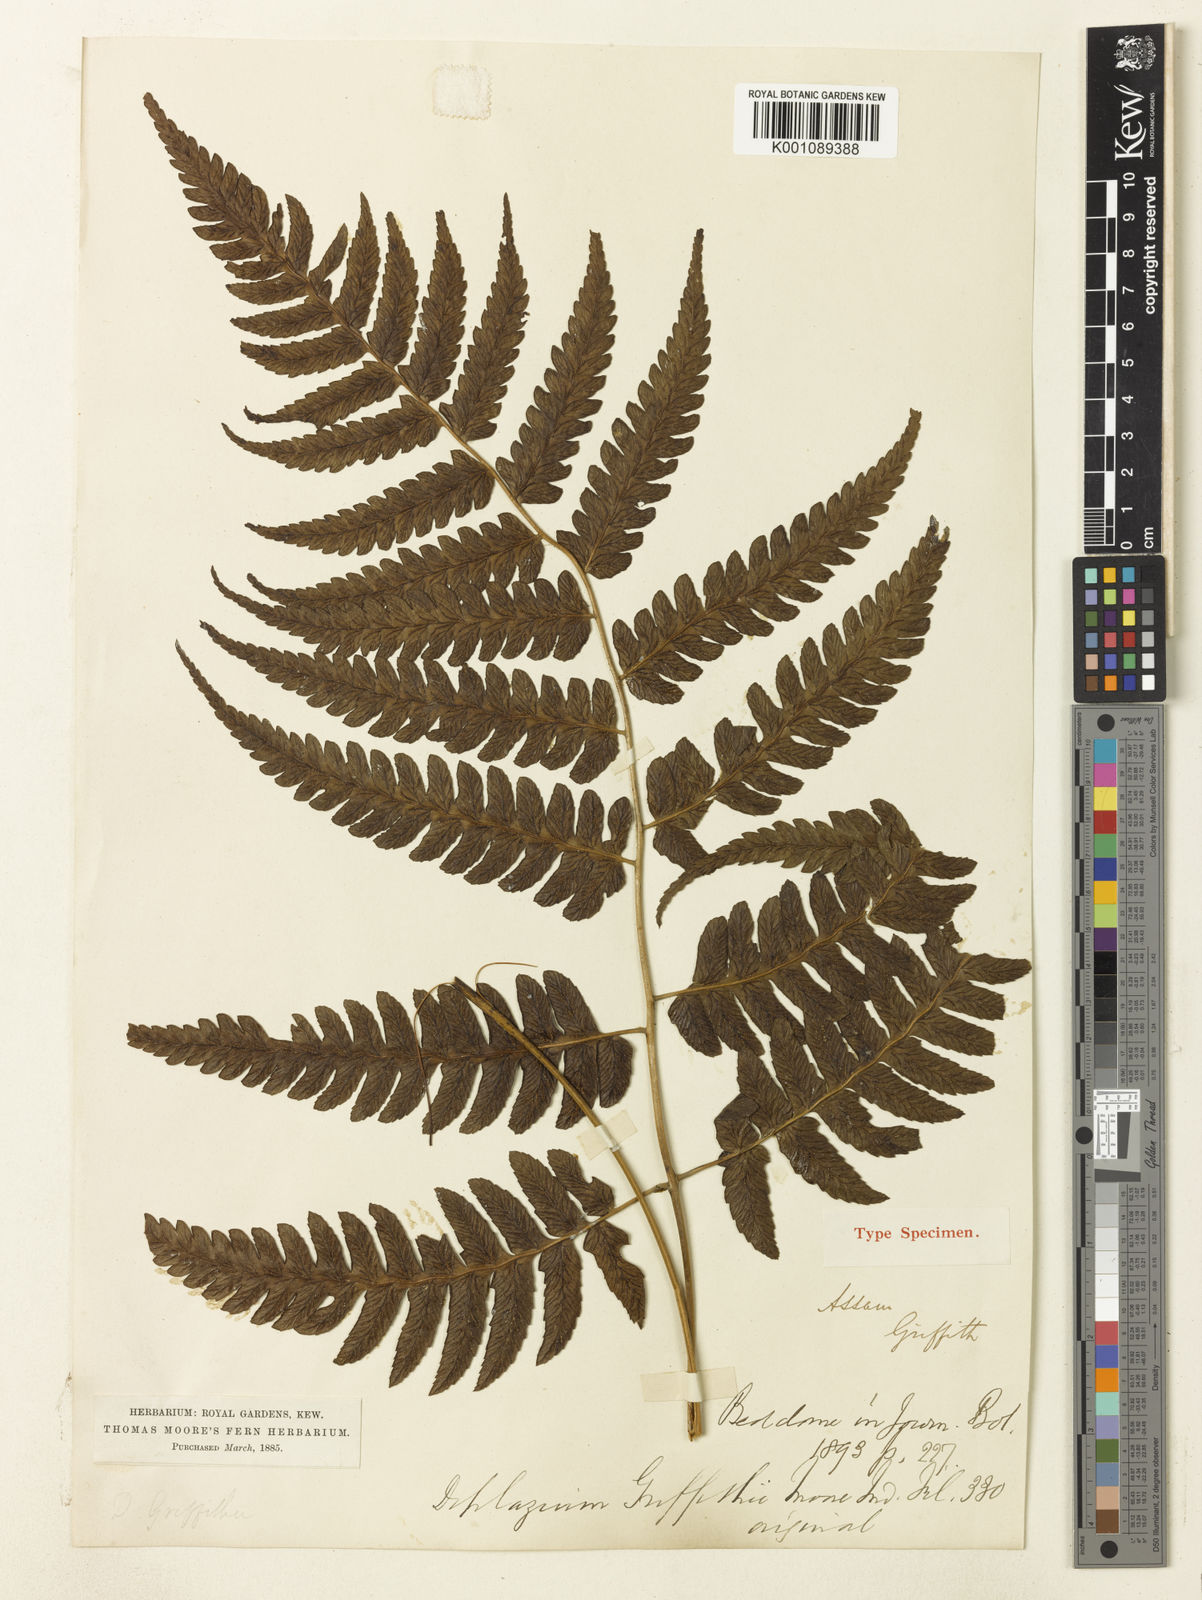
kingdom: Plantae
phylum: Tracheophyta
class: Polypodiopsida
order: Polypodiales
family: Athyriaceae
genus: Diplazium
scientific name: Diplazium griffithii
